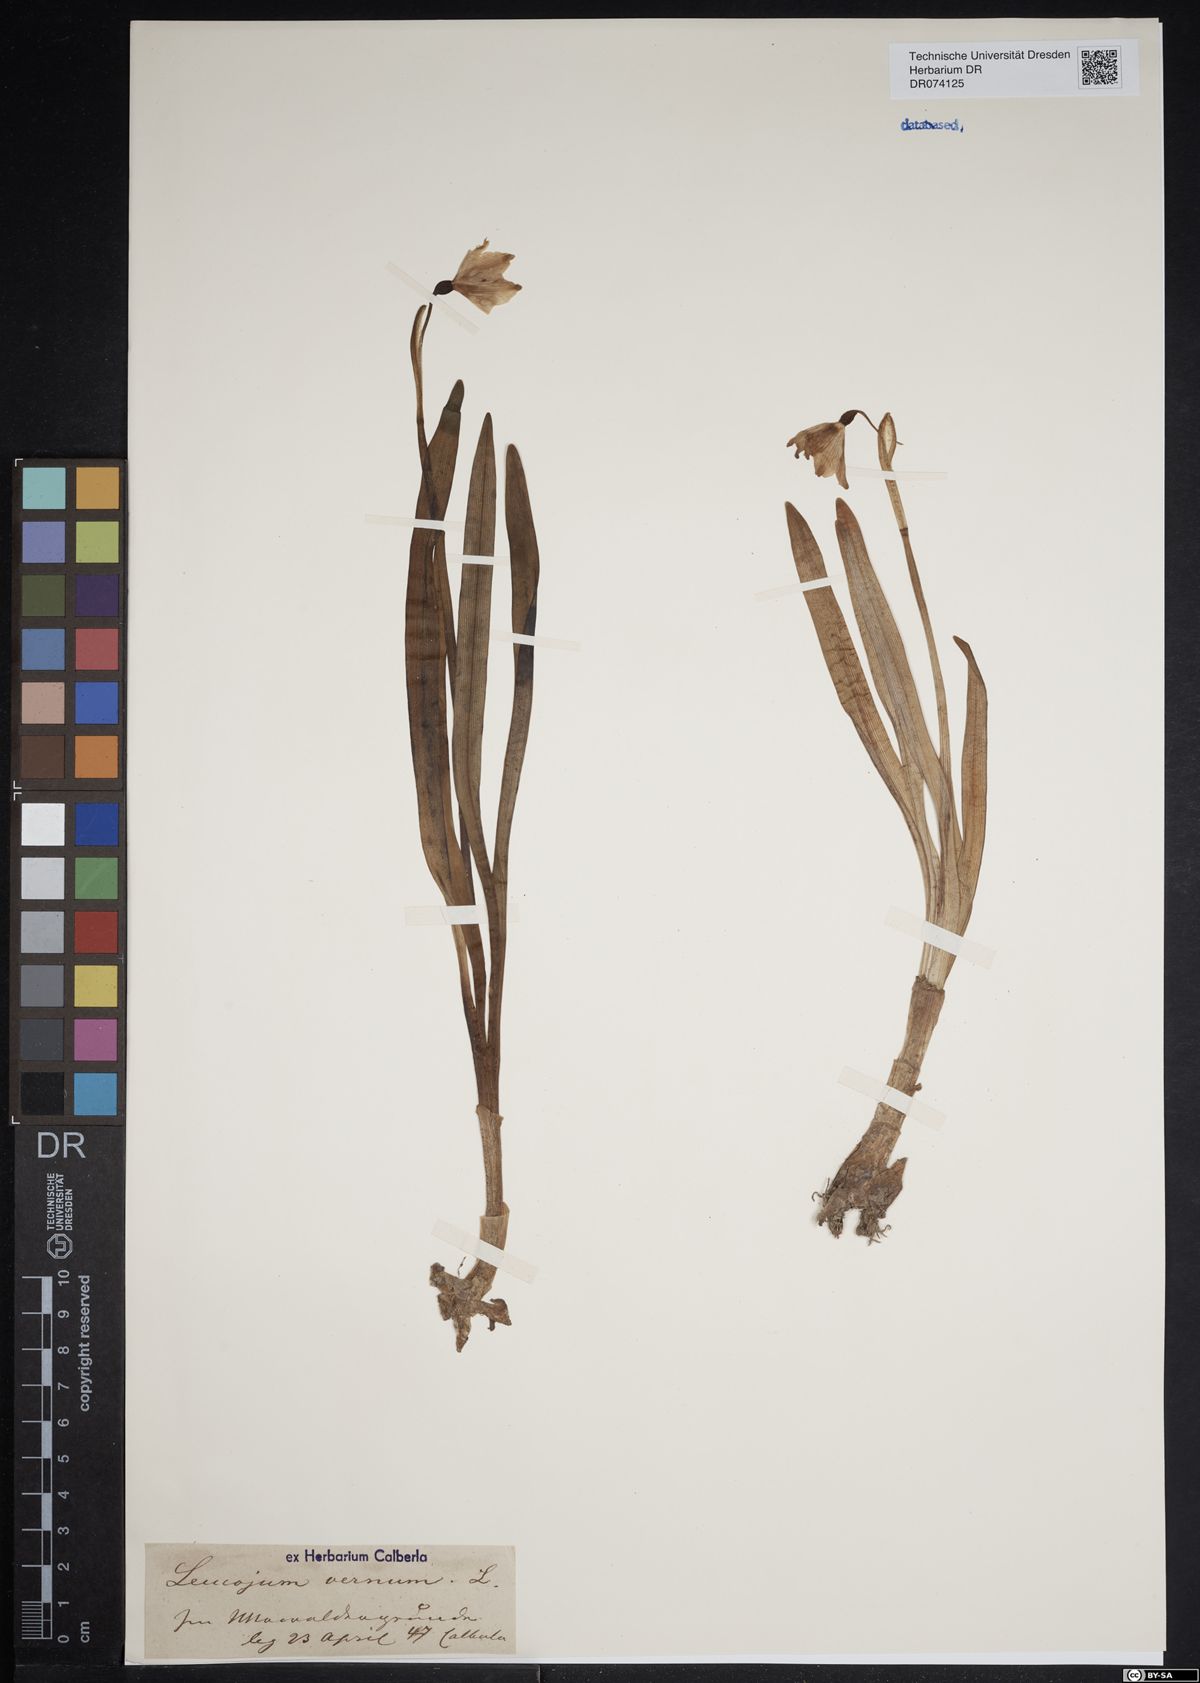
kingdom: Plantae
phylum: Tracheophyta
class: Liliopsida
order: Asparagales
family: Amaryllidaceae
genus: Leucojum
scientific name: Leucojum vernum
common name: Spring snowflake
